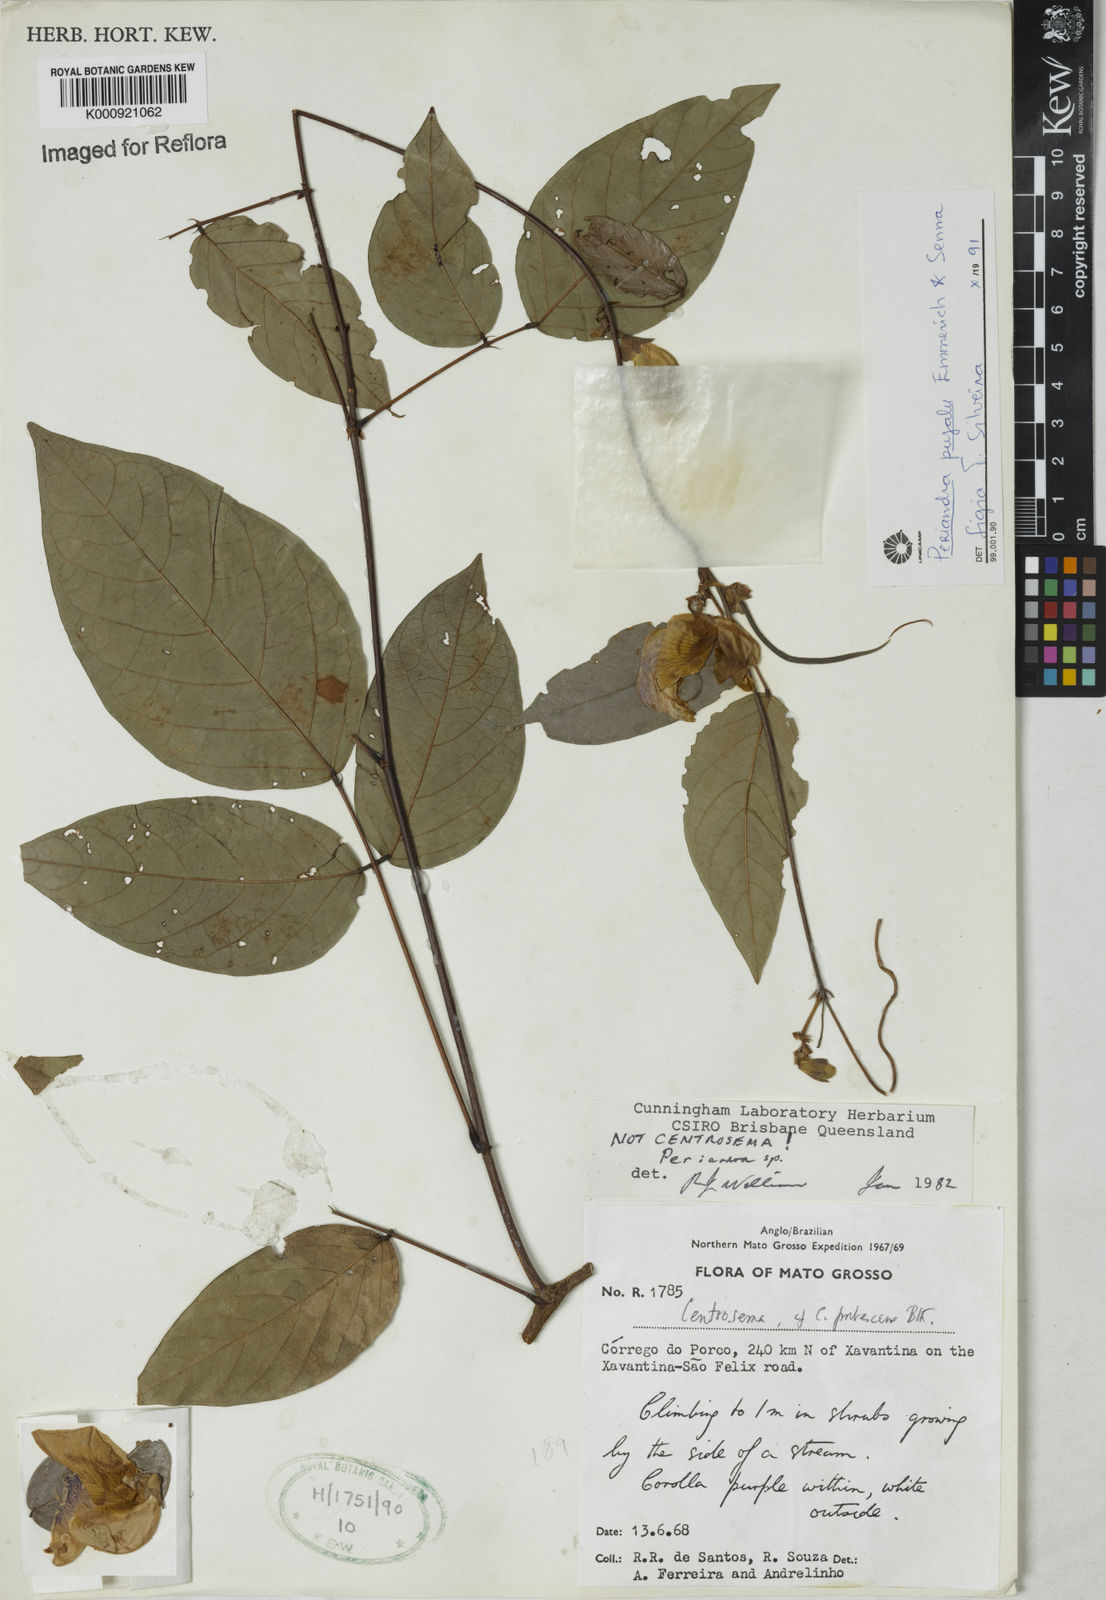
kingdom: Plantae
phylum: Tracheophyta
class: Magnoliopsida
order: Fabales
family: Fabaceae
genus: Periandra
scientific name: Periandra pujalu
